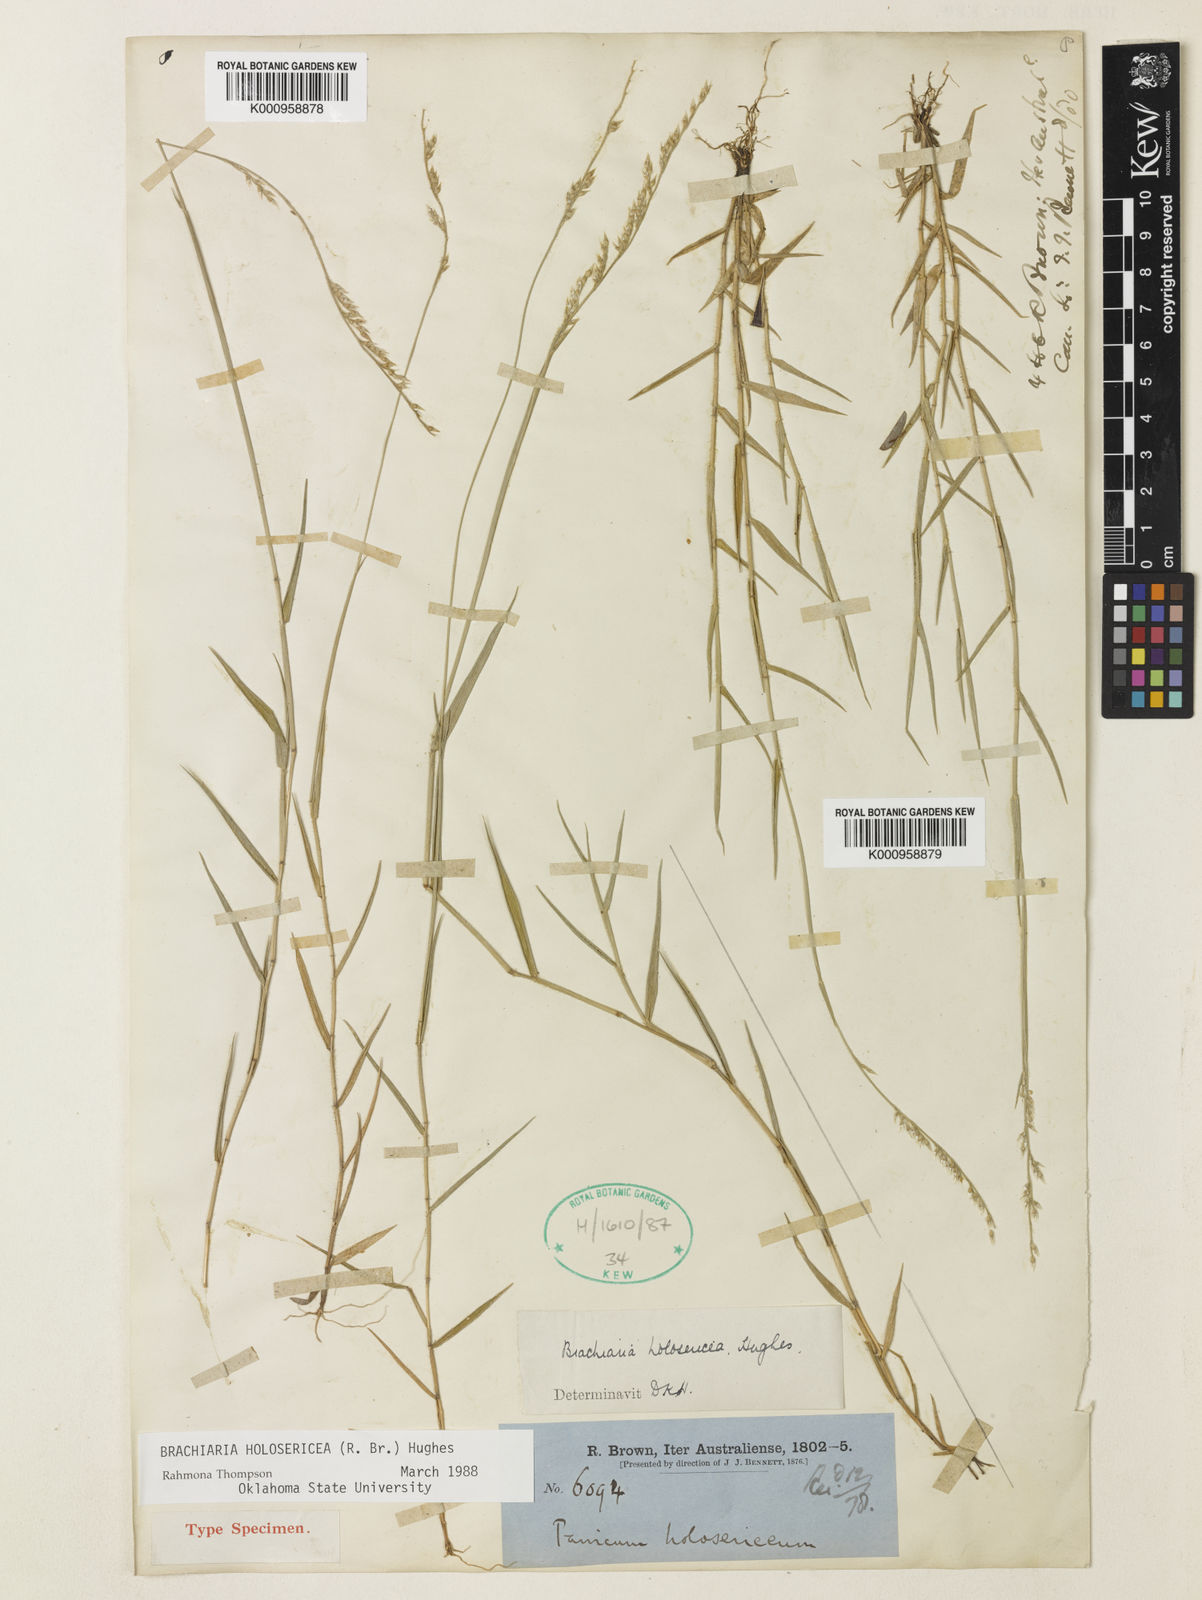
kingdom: Plantae
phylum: Tracheophyta
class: Liliopsida
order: Poales
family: Poaceae
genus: Urochloa
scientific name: Urochloa holosericea
